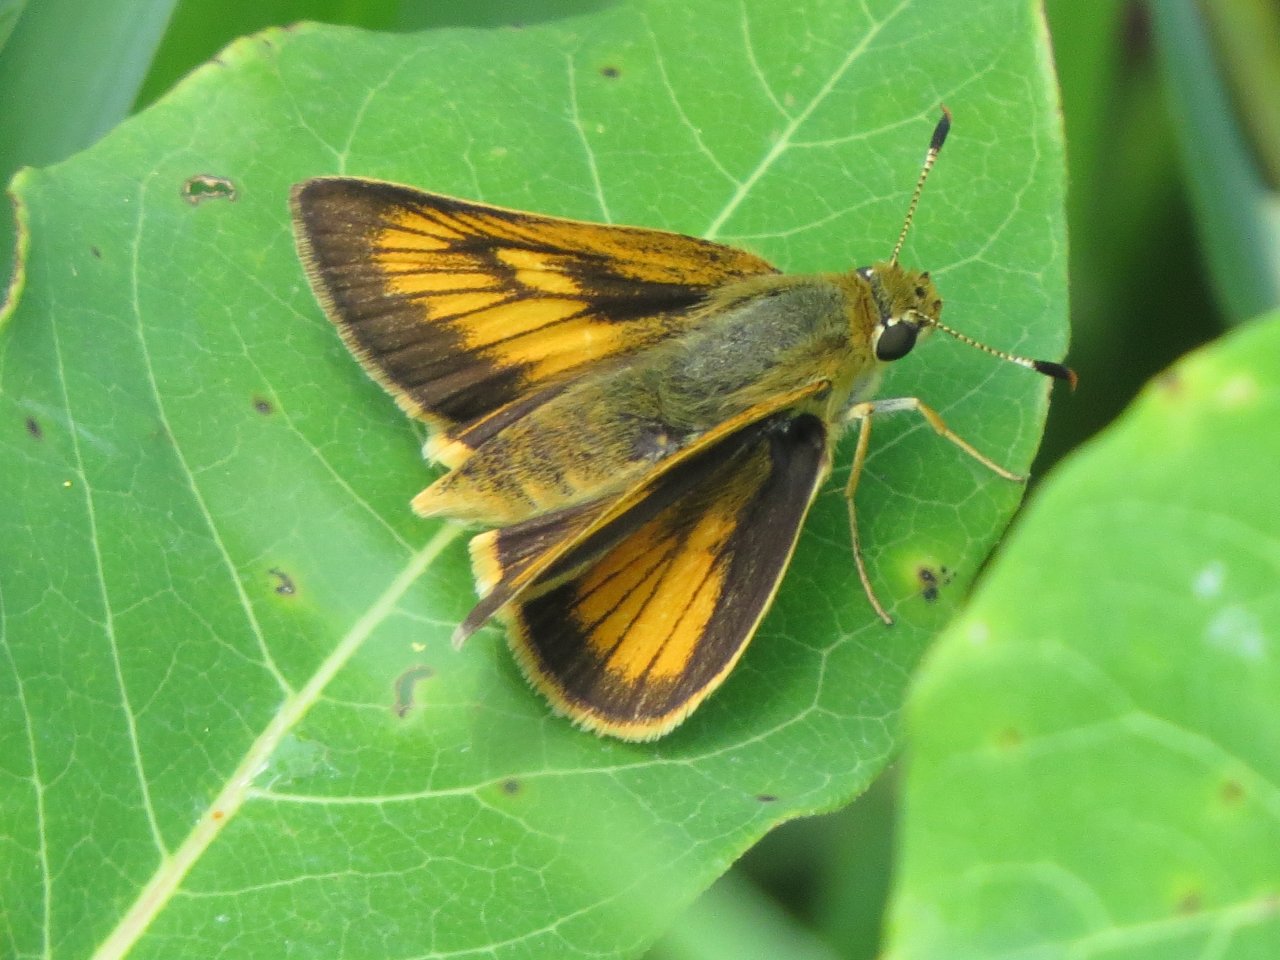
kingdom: Animalia
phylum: Arthropoda
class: Insecta
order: Lepidoptera
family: Hesperiidae
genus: Atrytone
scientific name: Atrytone delaware
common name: Delaware Skipper
